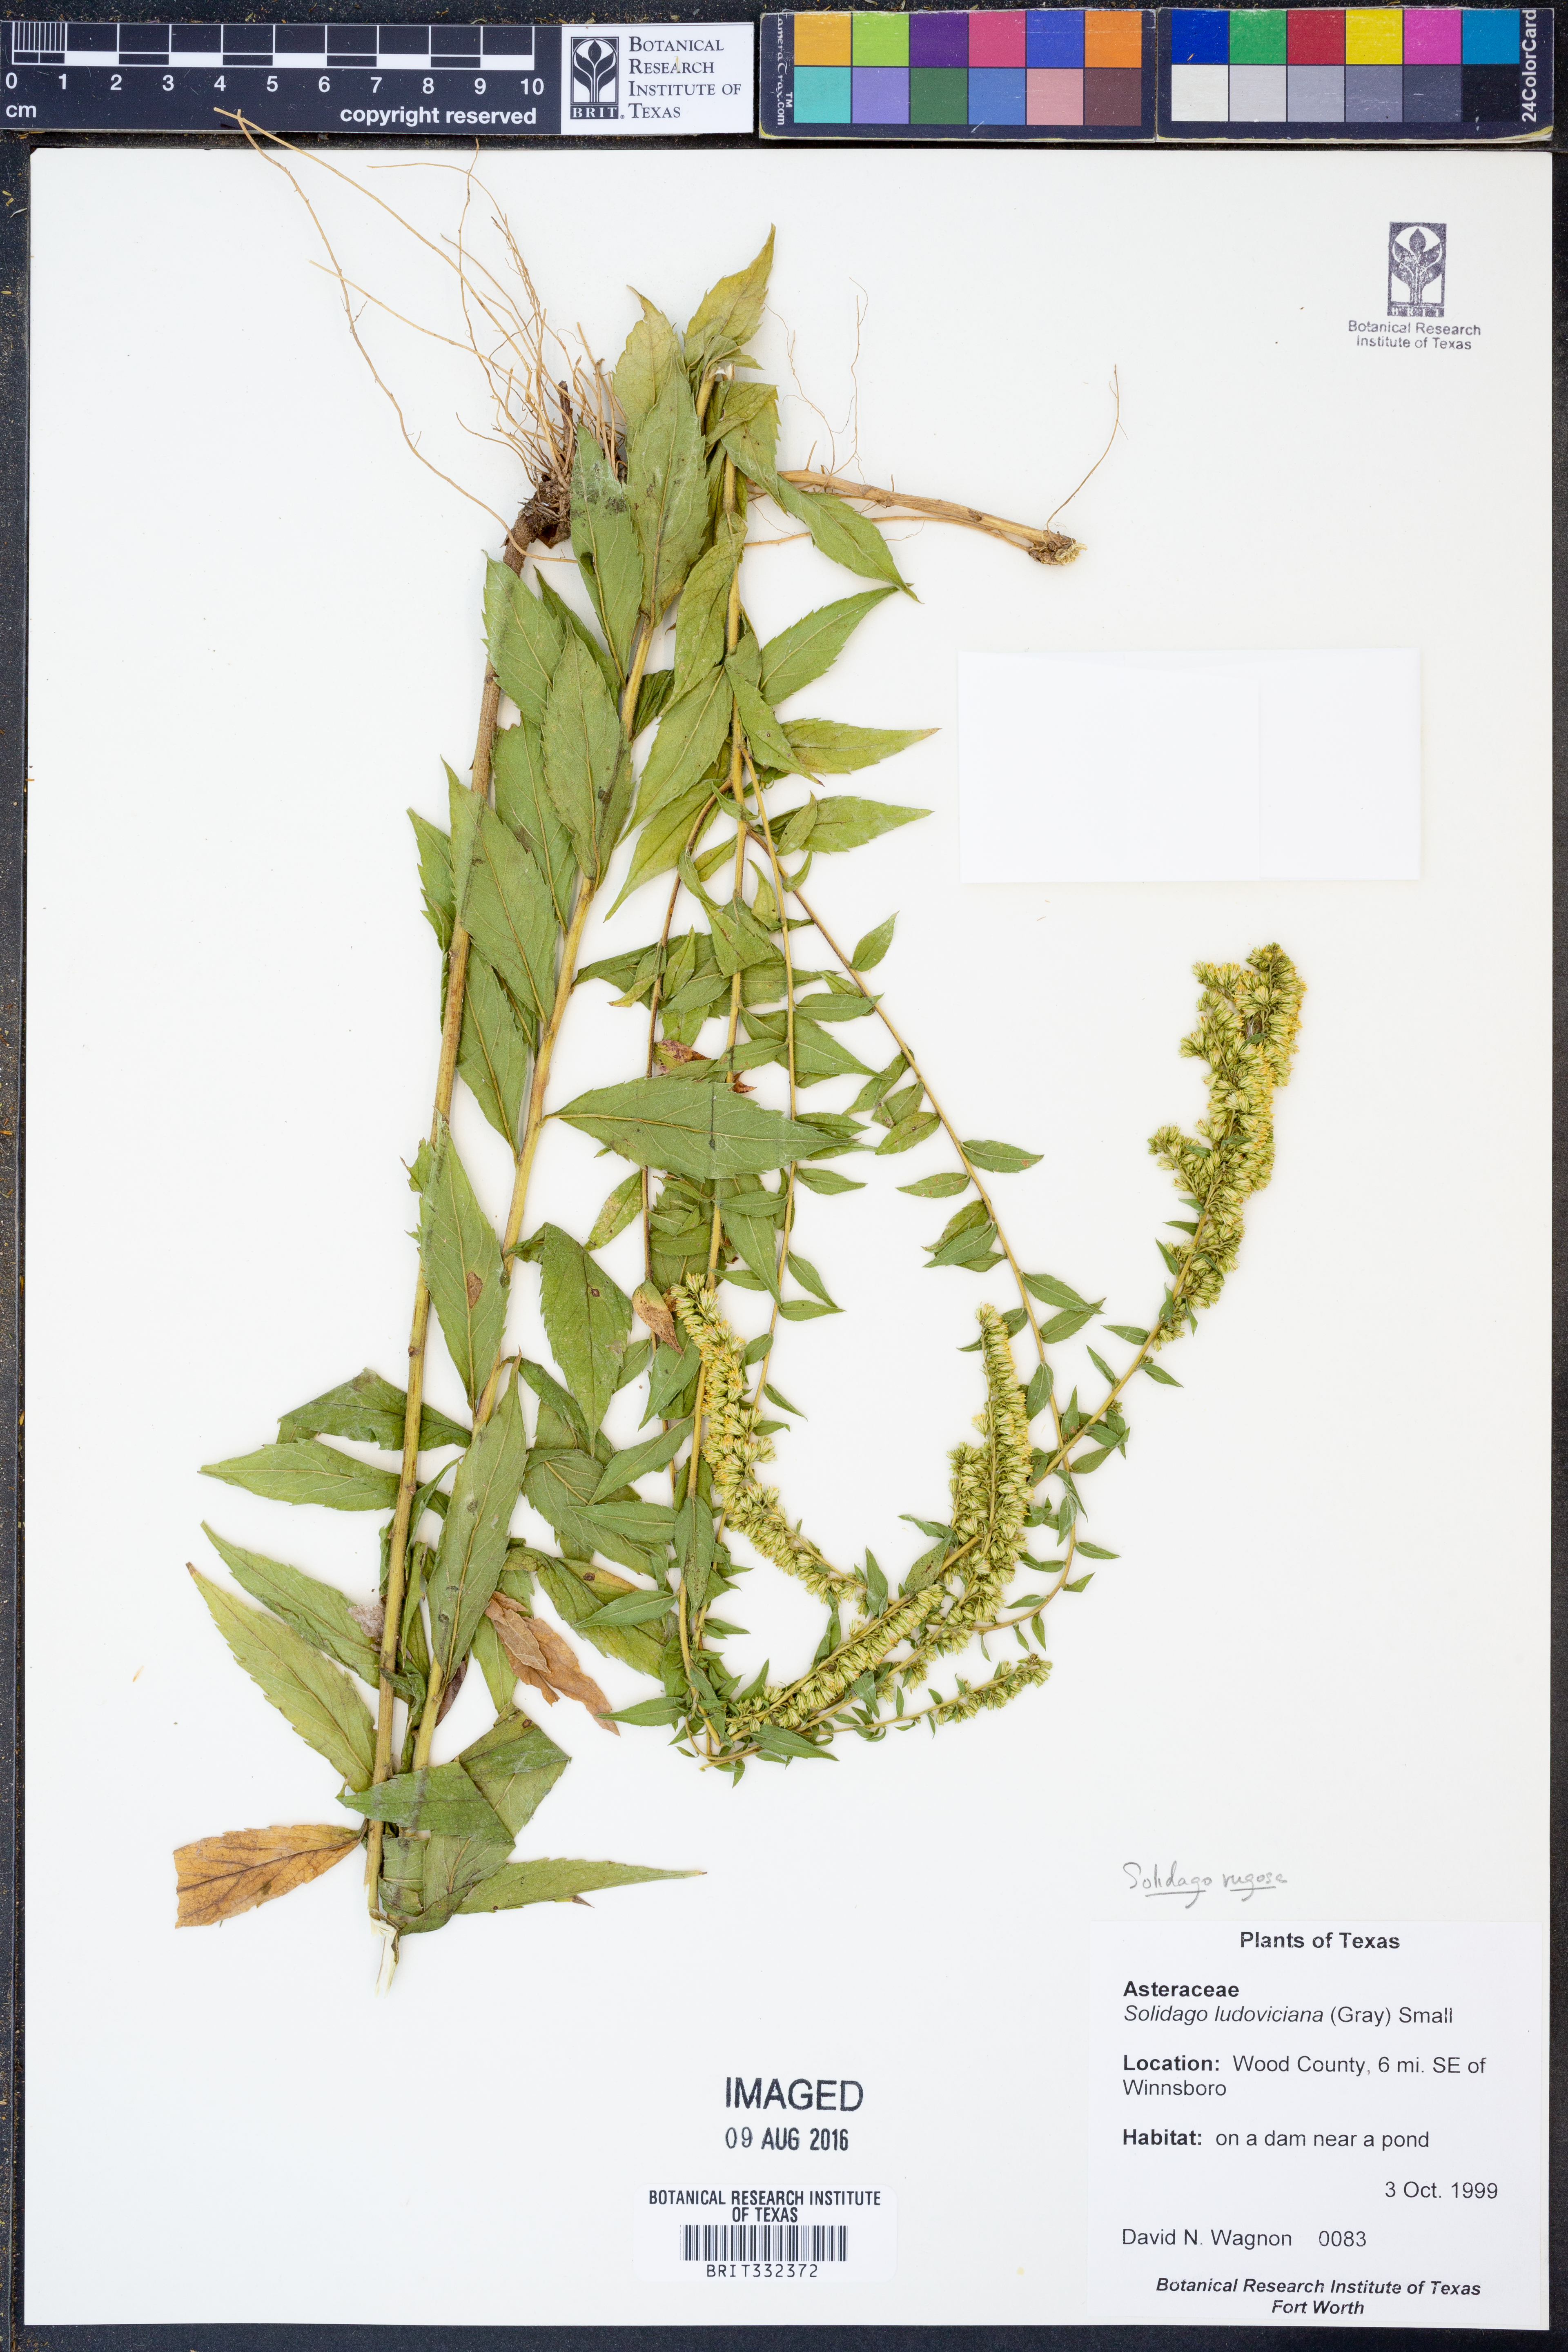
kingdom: Plantae
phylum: Tracheophyta
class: Magnoliopsida
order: Asterales
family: Asteraceae
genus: Solidago
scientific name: Solidago rugosa
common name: Rough-stemmed goldenrod
